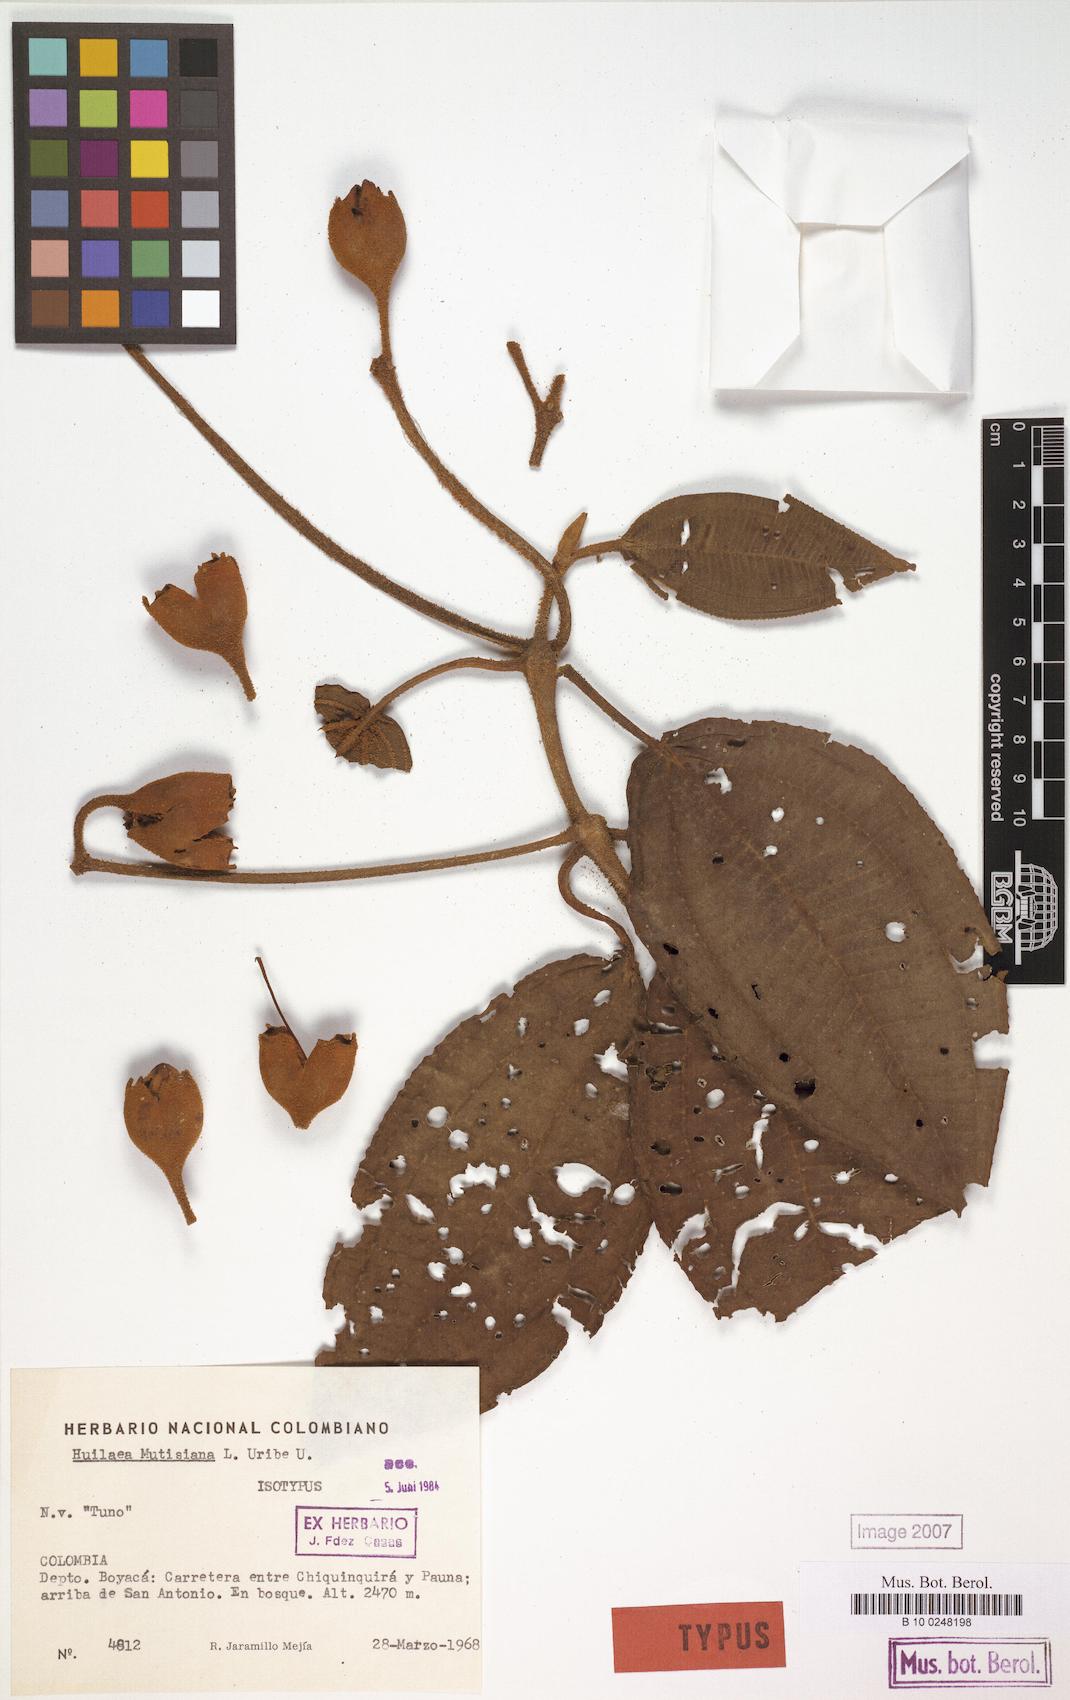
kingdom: Plantae
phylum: Tracheophyta
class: Magnoliopsida
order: Myrtales
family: Melastomataceae
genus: Chalybea
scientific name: Chalybea mutisiana
